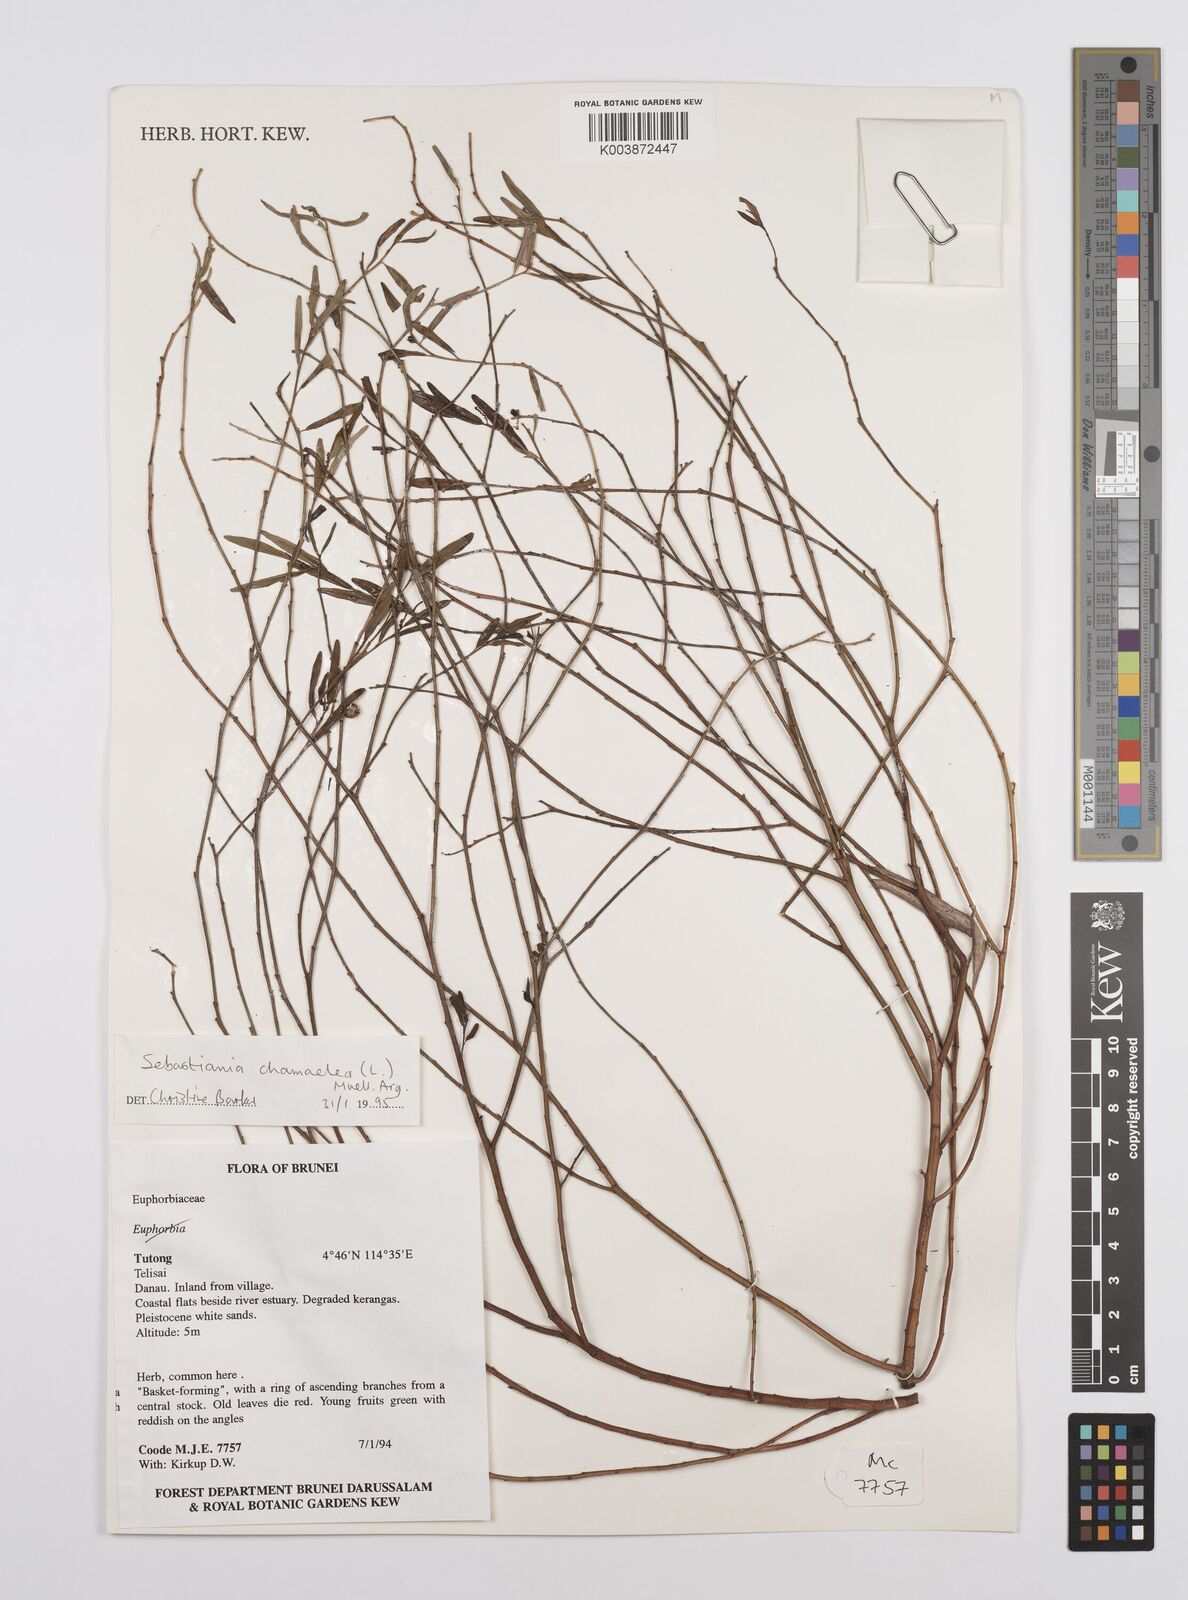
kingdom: Plantae
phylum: Tracheophyta
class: Magnoliopsida
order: Malpighiales
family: Euphorbiaceae
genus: Microstachys
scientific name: Microstachys chamaelea
